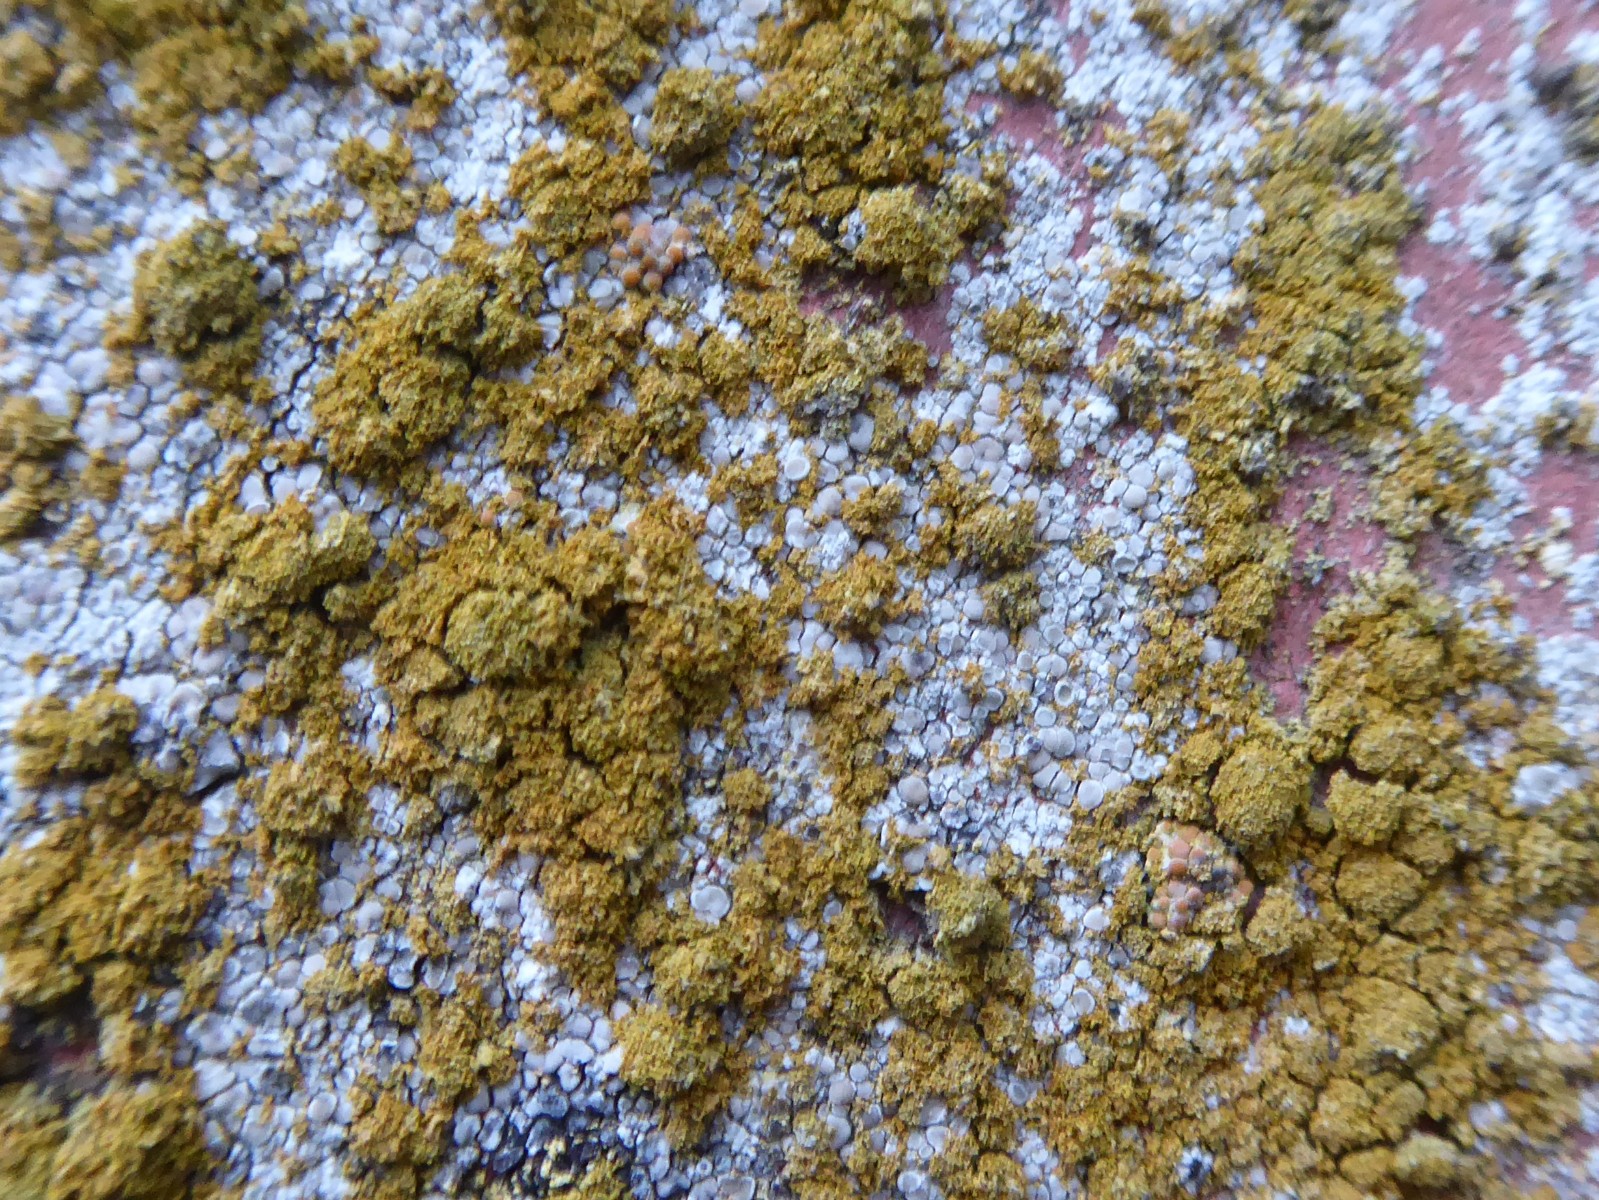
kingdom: Fungi
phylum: Ascomycota
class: Lecanoromycetes
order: Teloschistales
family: Teloschistaceae
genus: Polycauliona
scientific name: Polycauliona candelaria
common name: tue-orangelav
